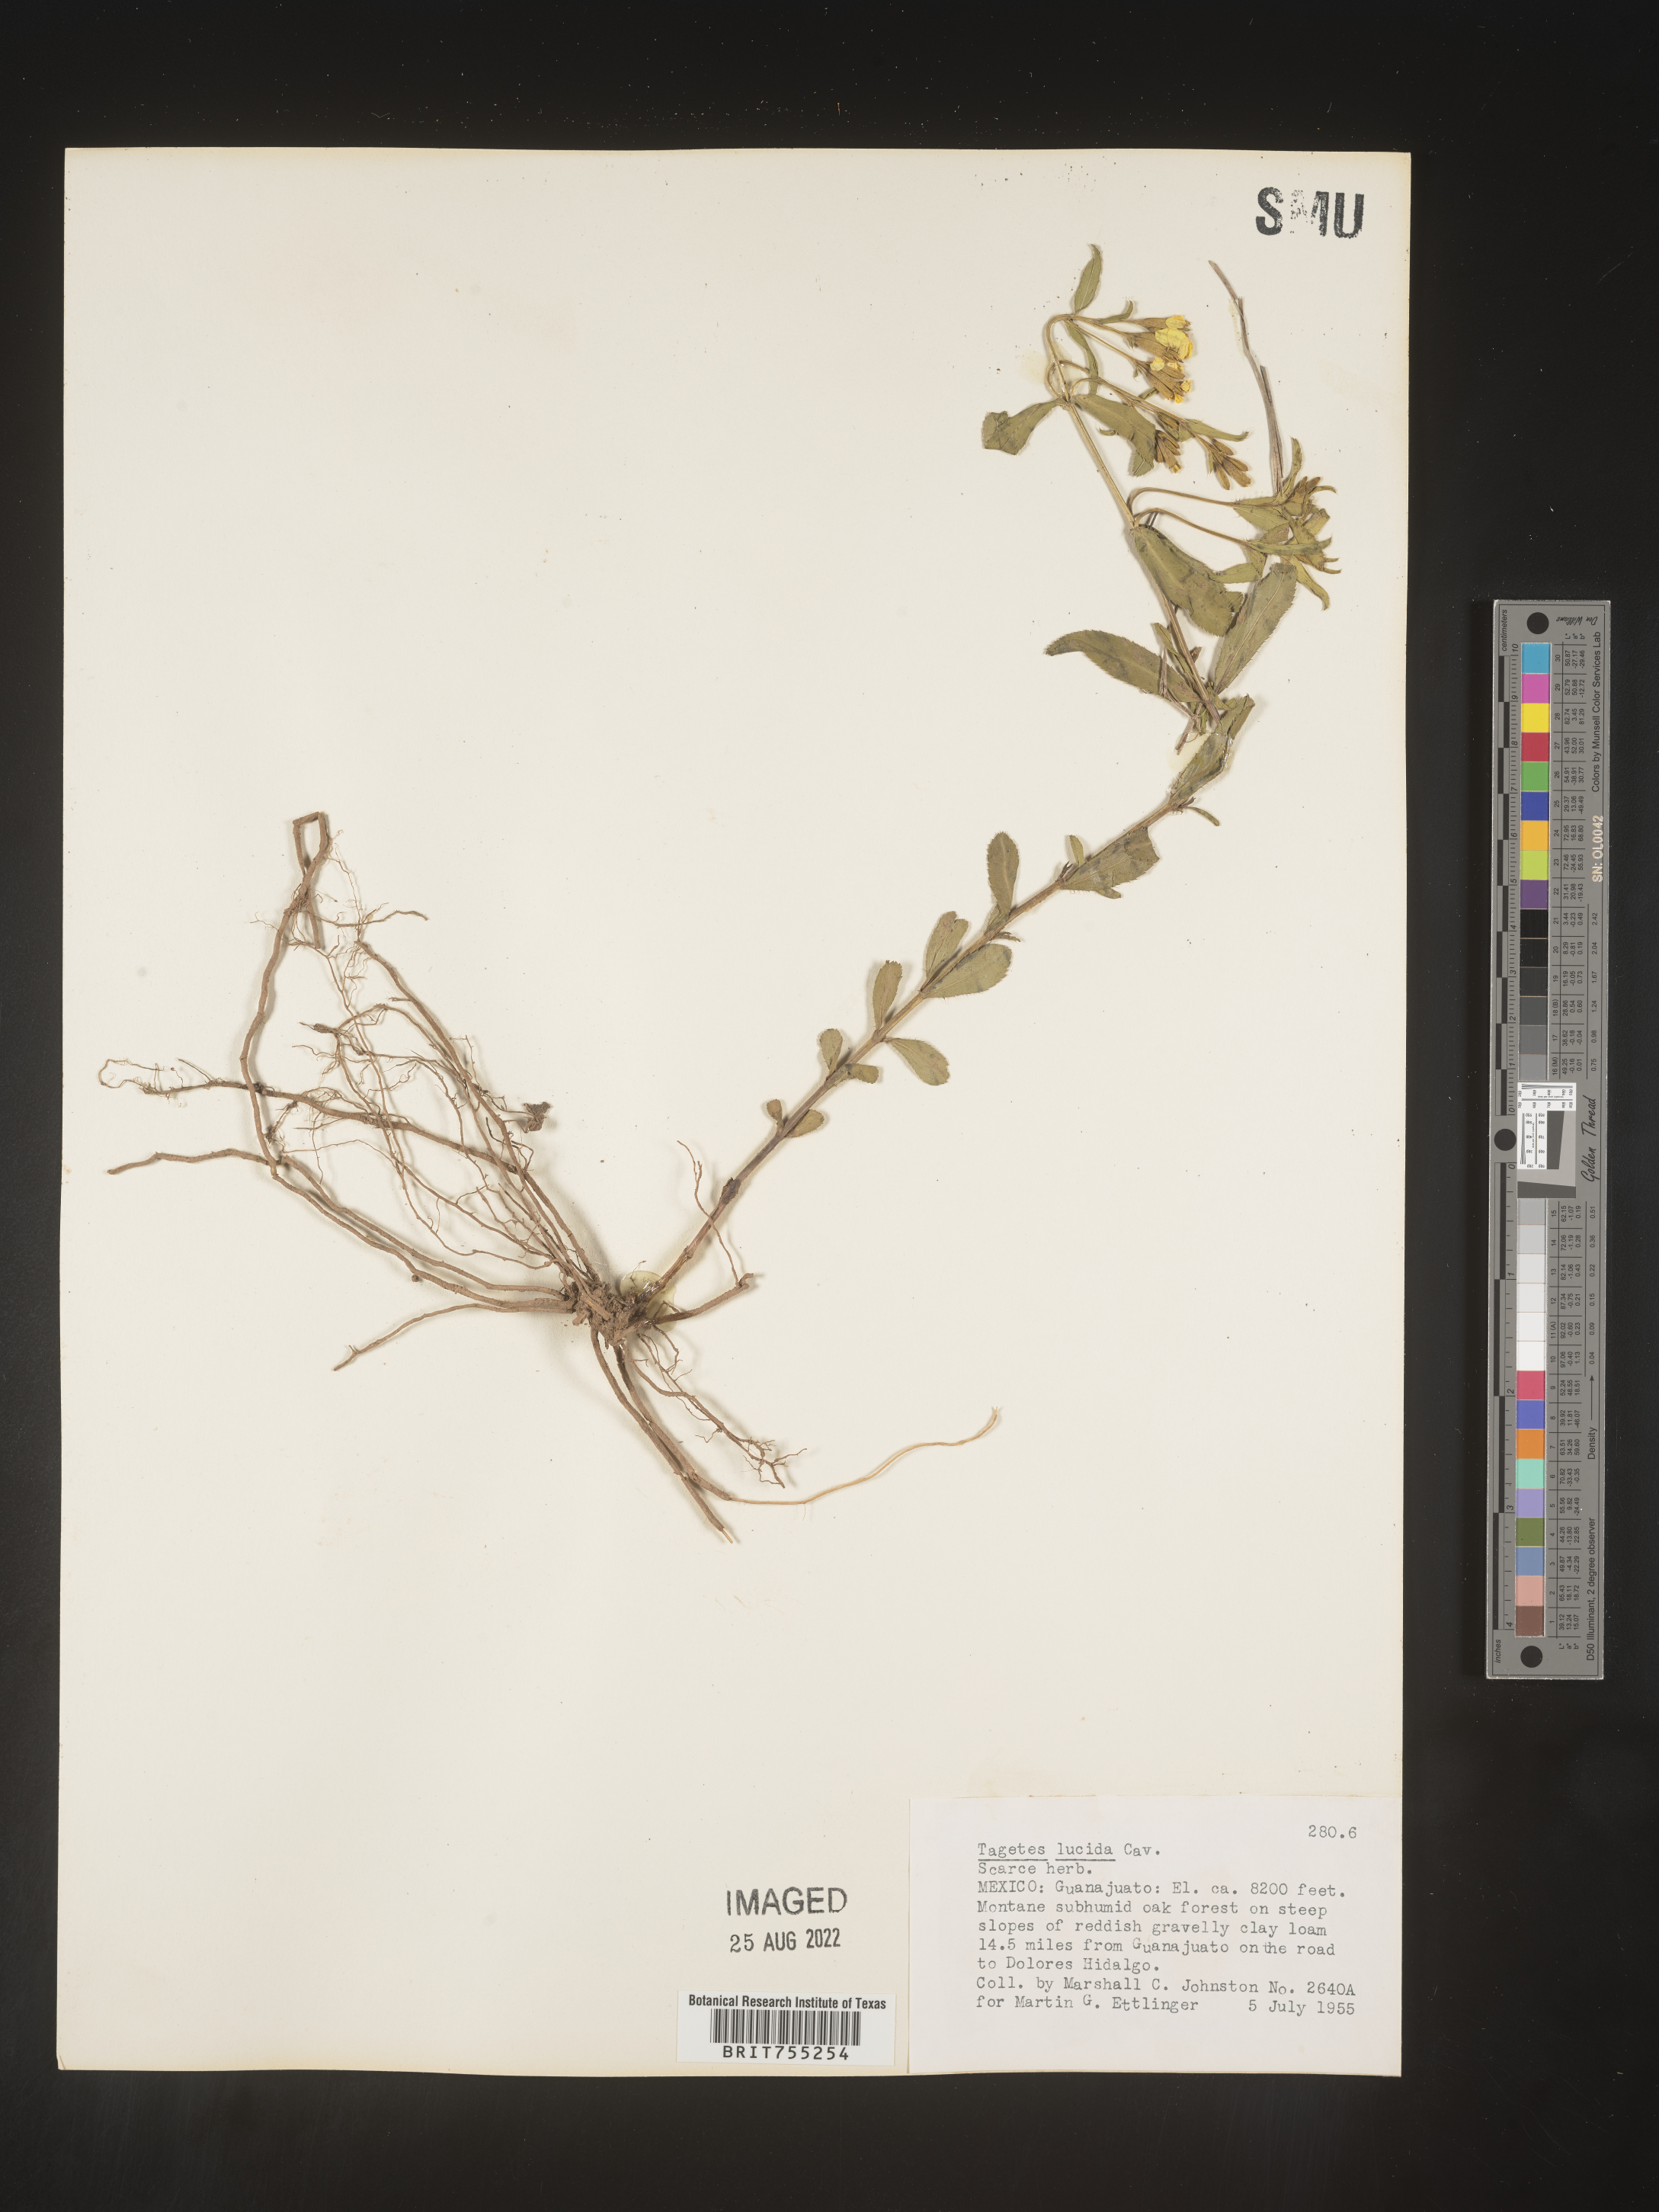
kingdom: Plantae
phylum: Tracheophyta
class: Magnoliopsida
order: Asterales
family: Asteraceae
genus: Tagetes
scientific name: Tagetes lucida
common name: Sweetscented marigold
